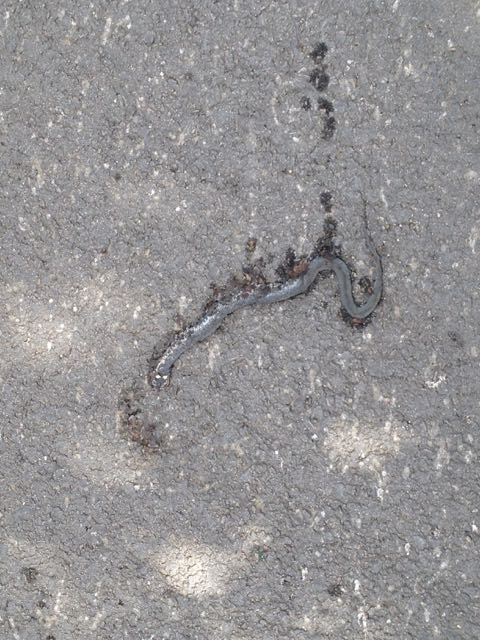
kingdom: Animalia
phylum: Chordata
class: Squamata
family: Colubridae
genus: Natrix
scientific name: Natrix natrix
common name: Grass snake
